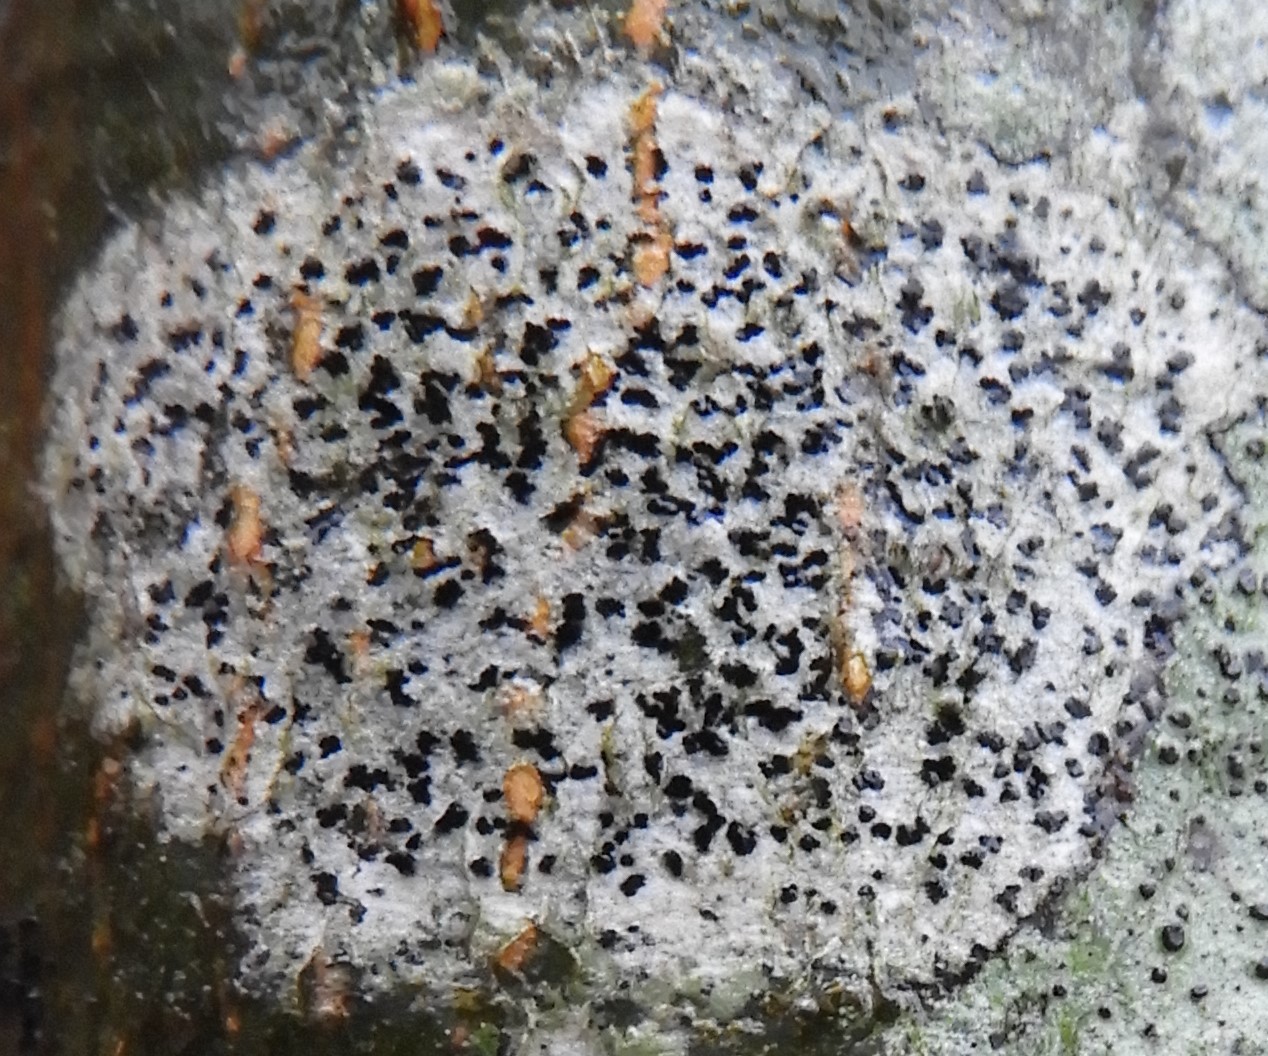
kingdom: Fungi
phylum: Ascomycota
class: Arthoniomycetes
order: Arthoniales
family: Arthoniaceae
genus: Arthonia
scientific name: Arthonia radiata
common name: stjerne-pletlav
